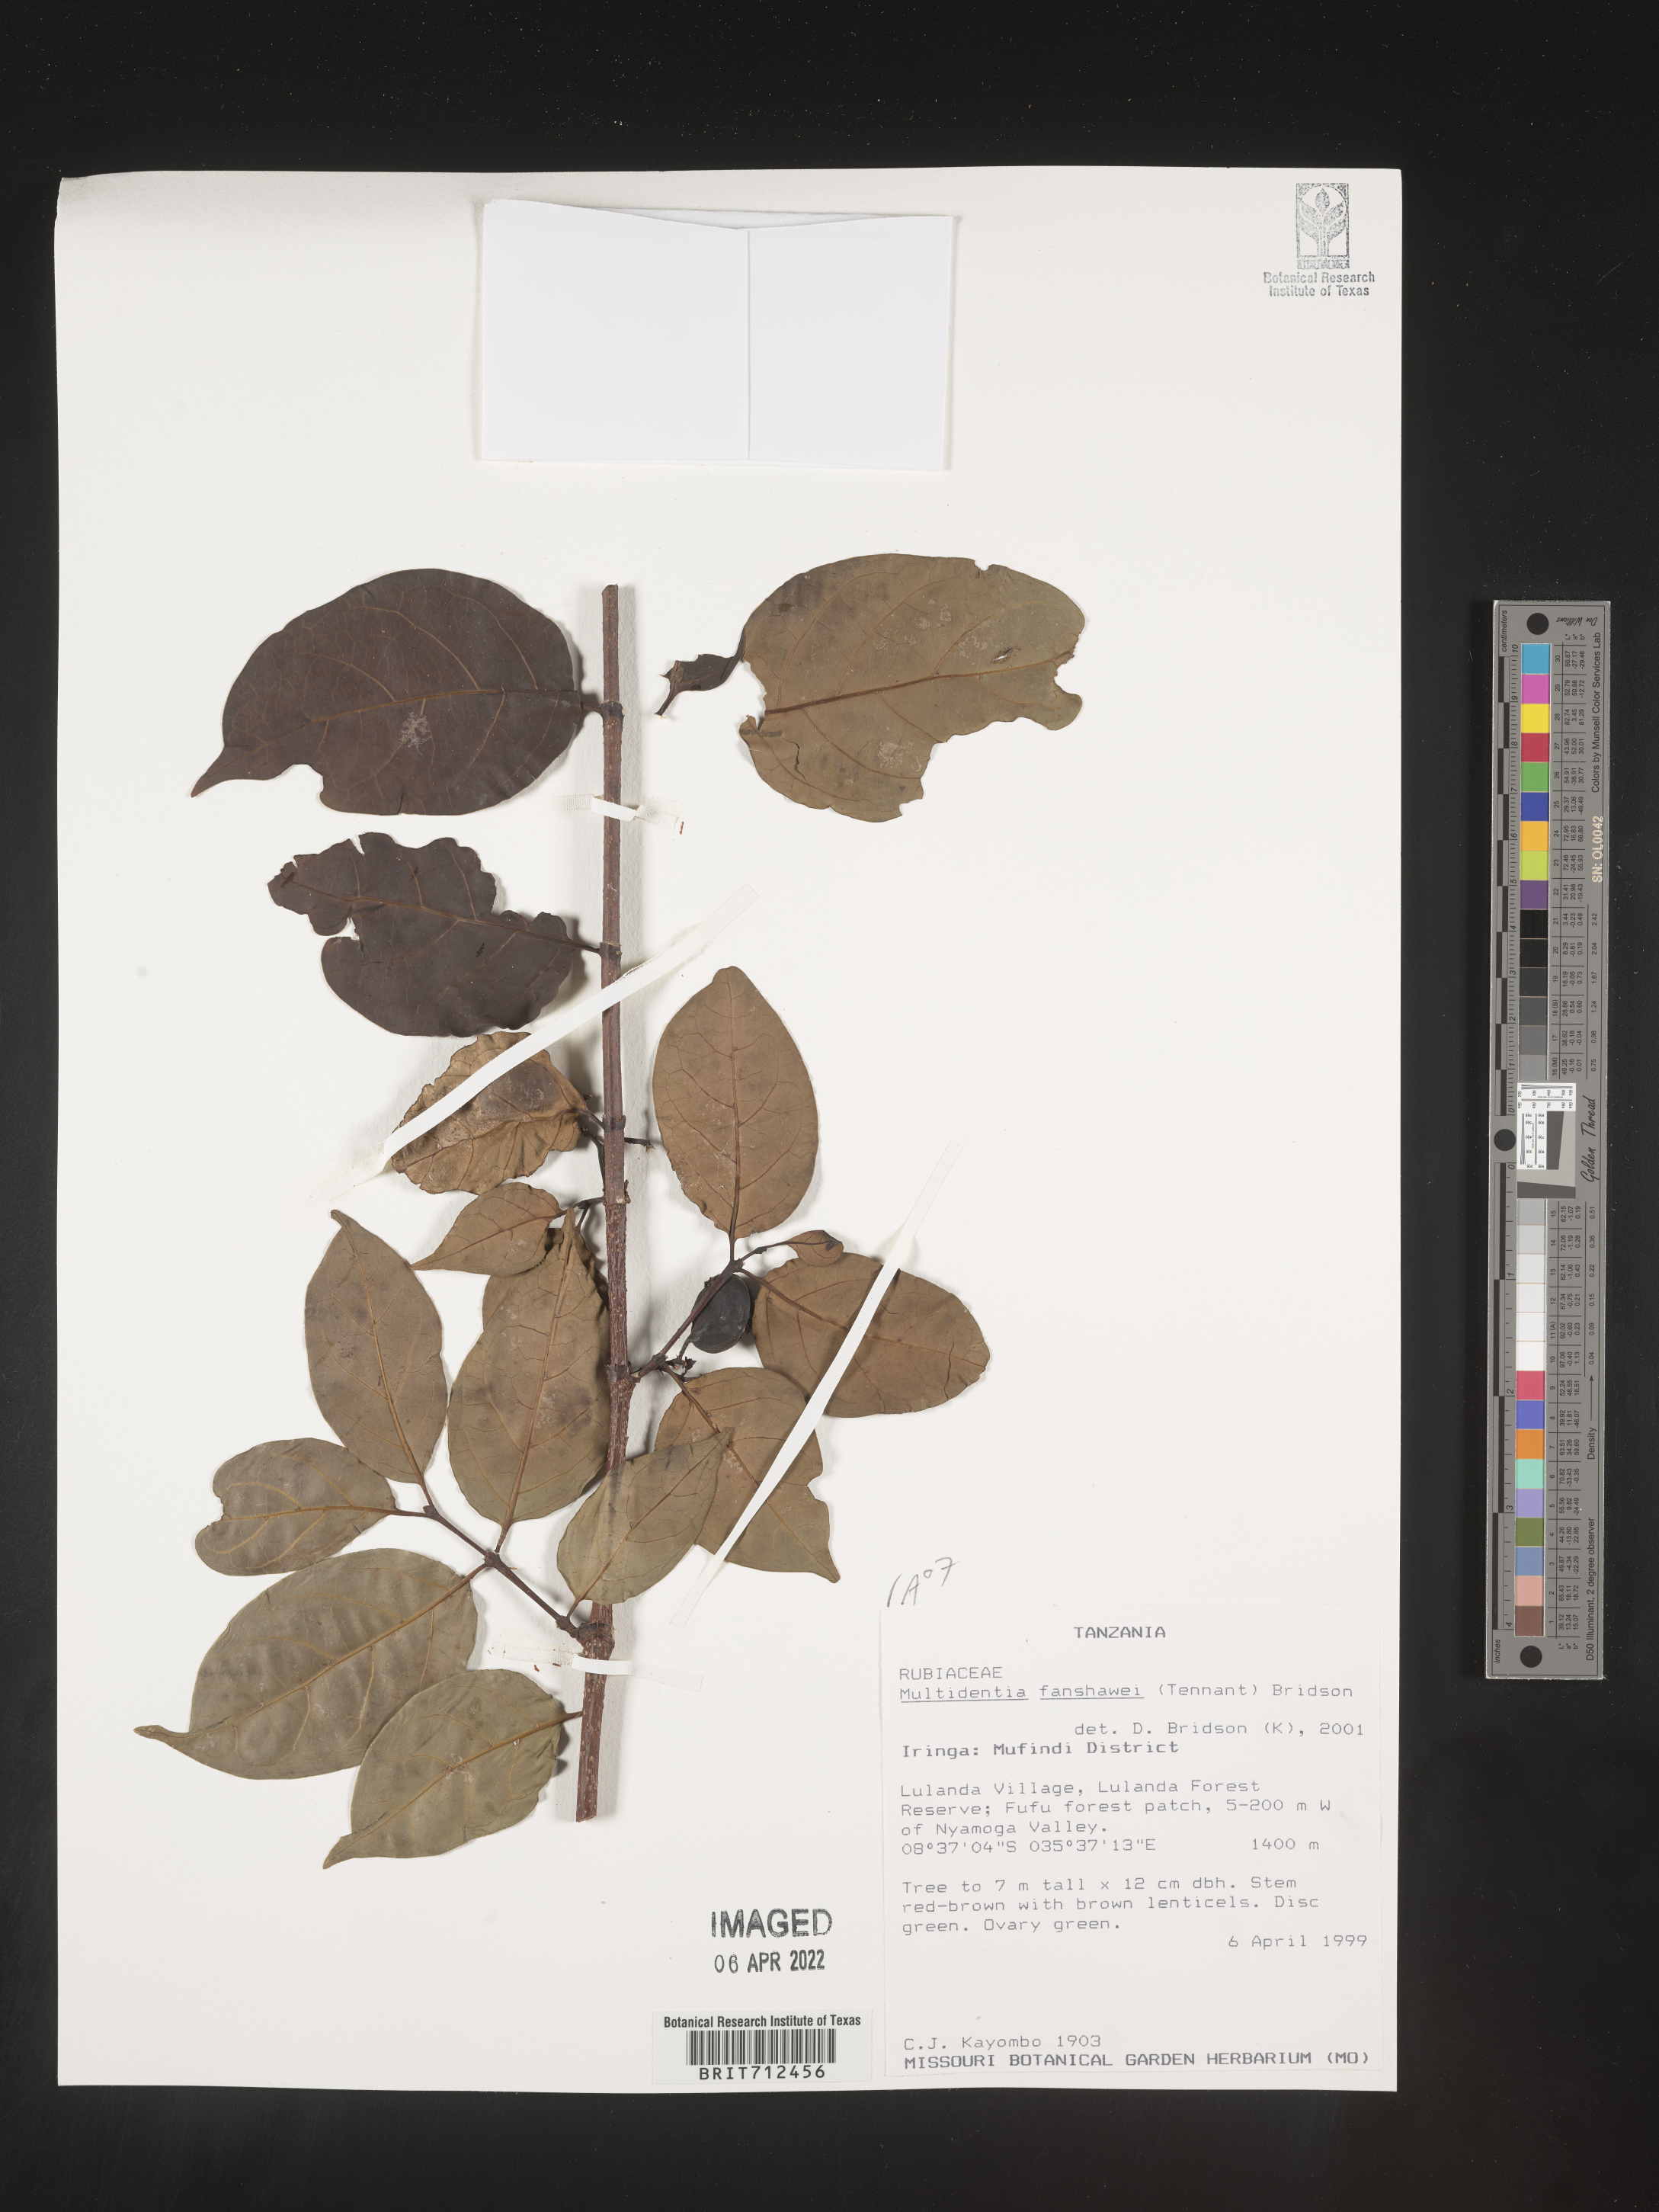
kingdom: Plantae
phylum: Tracheophyta
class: Magnoliopsida
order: Gentianales
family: Rubiaceae
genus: Multidentia
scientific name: Multidentia
